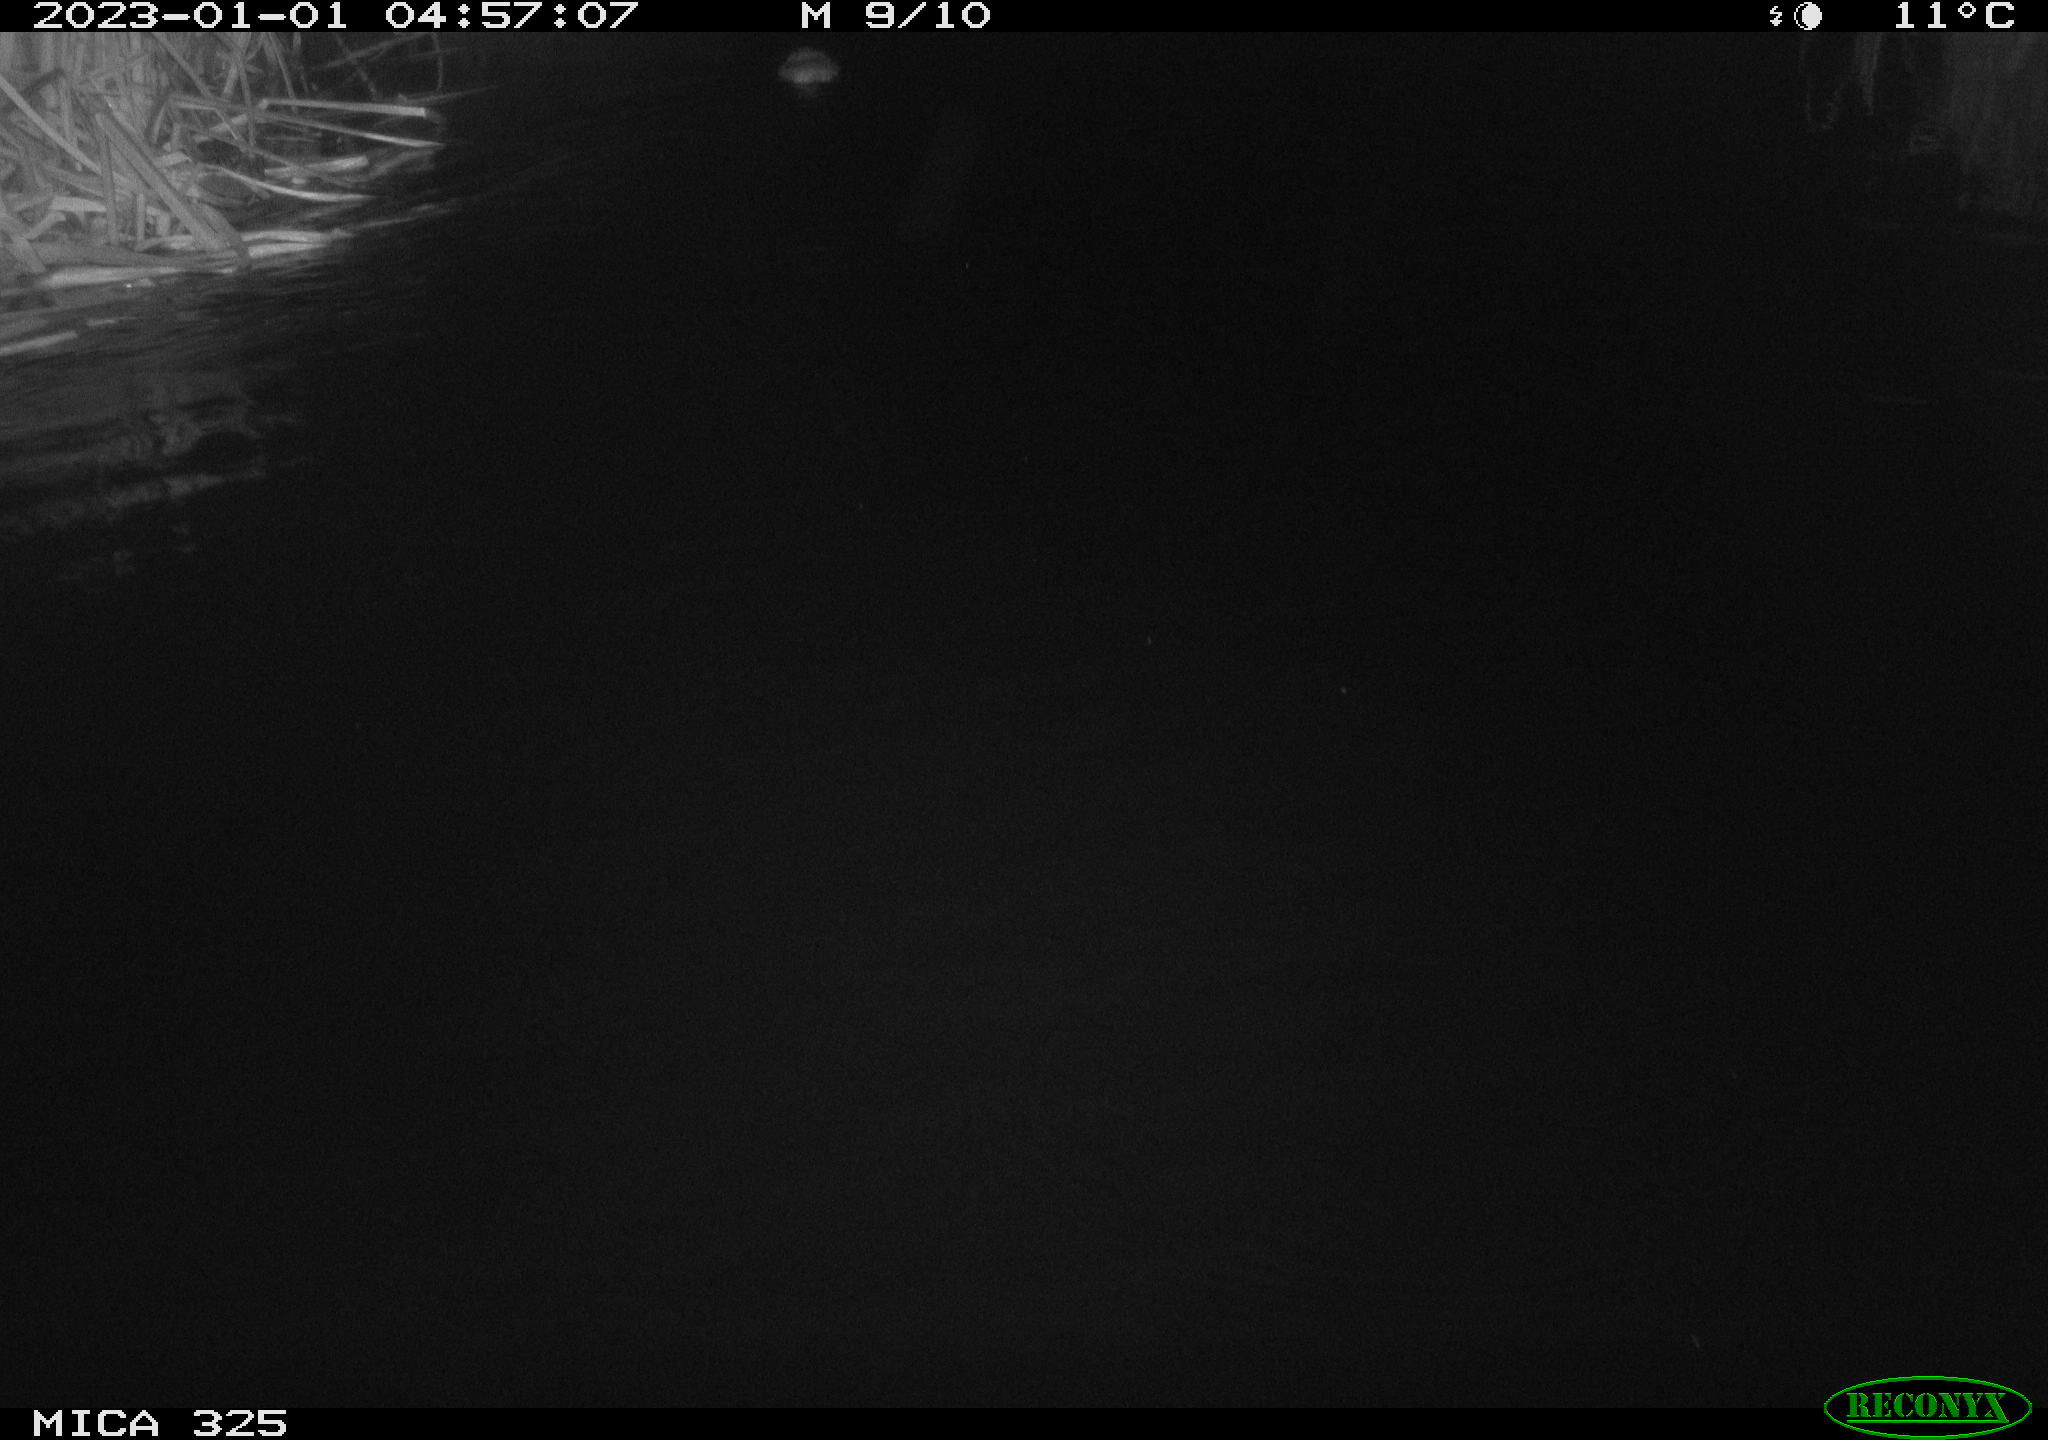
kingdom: Animalia
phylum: Chordata
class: Mammalia
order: Rodentia
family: Cricetidae
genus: Ondatra
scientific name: Ondatra zibethicus
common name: Muskrat
